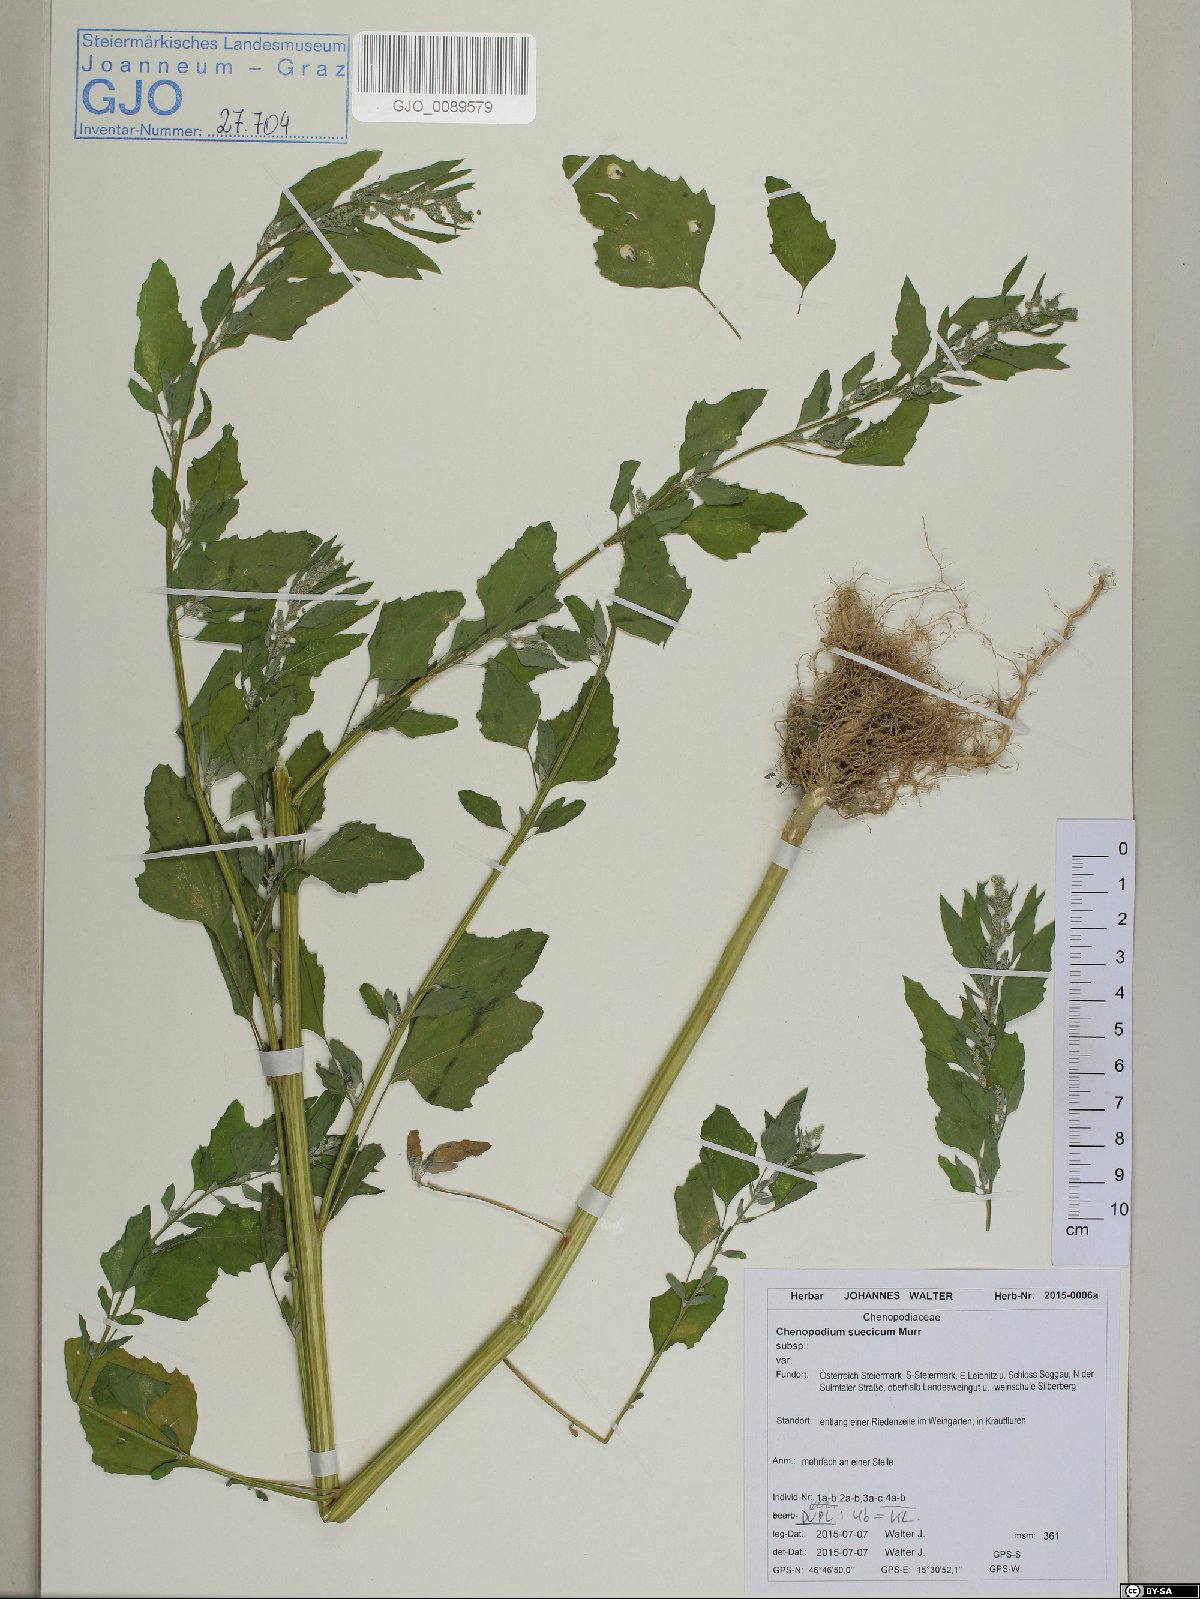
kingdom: Plantae
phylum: Tracheophyta
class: Magnoliopsida
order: Caryophyllales
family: Amaranthaceae
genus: Chenopodium
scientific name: Chenopodium suecicum
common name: Swedish goosefoot
